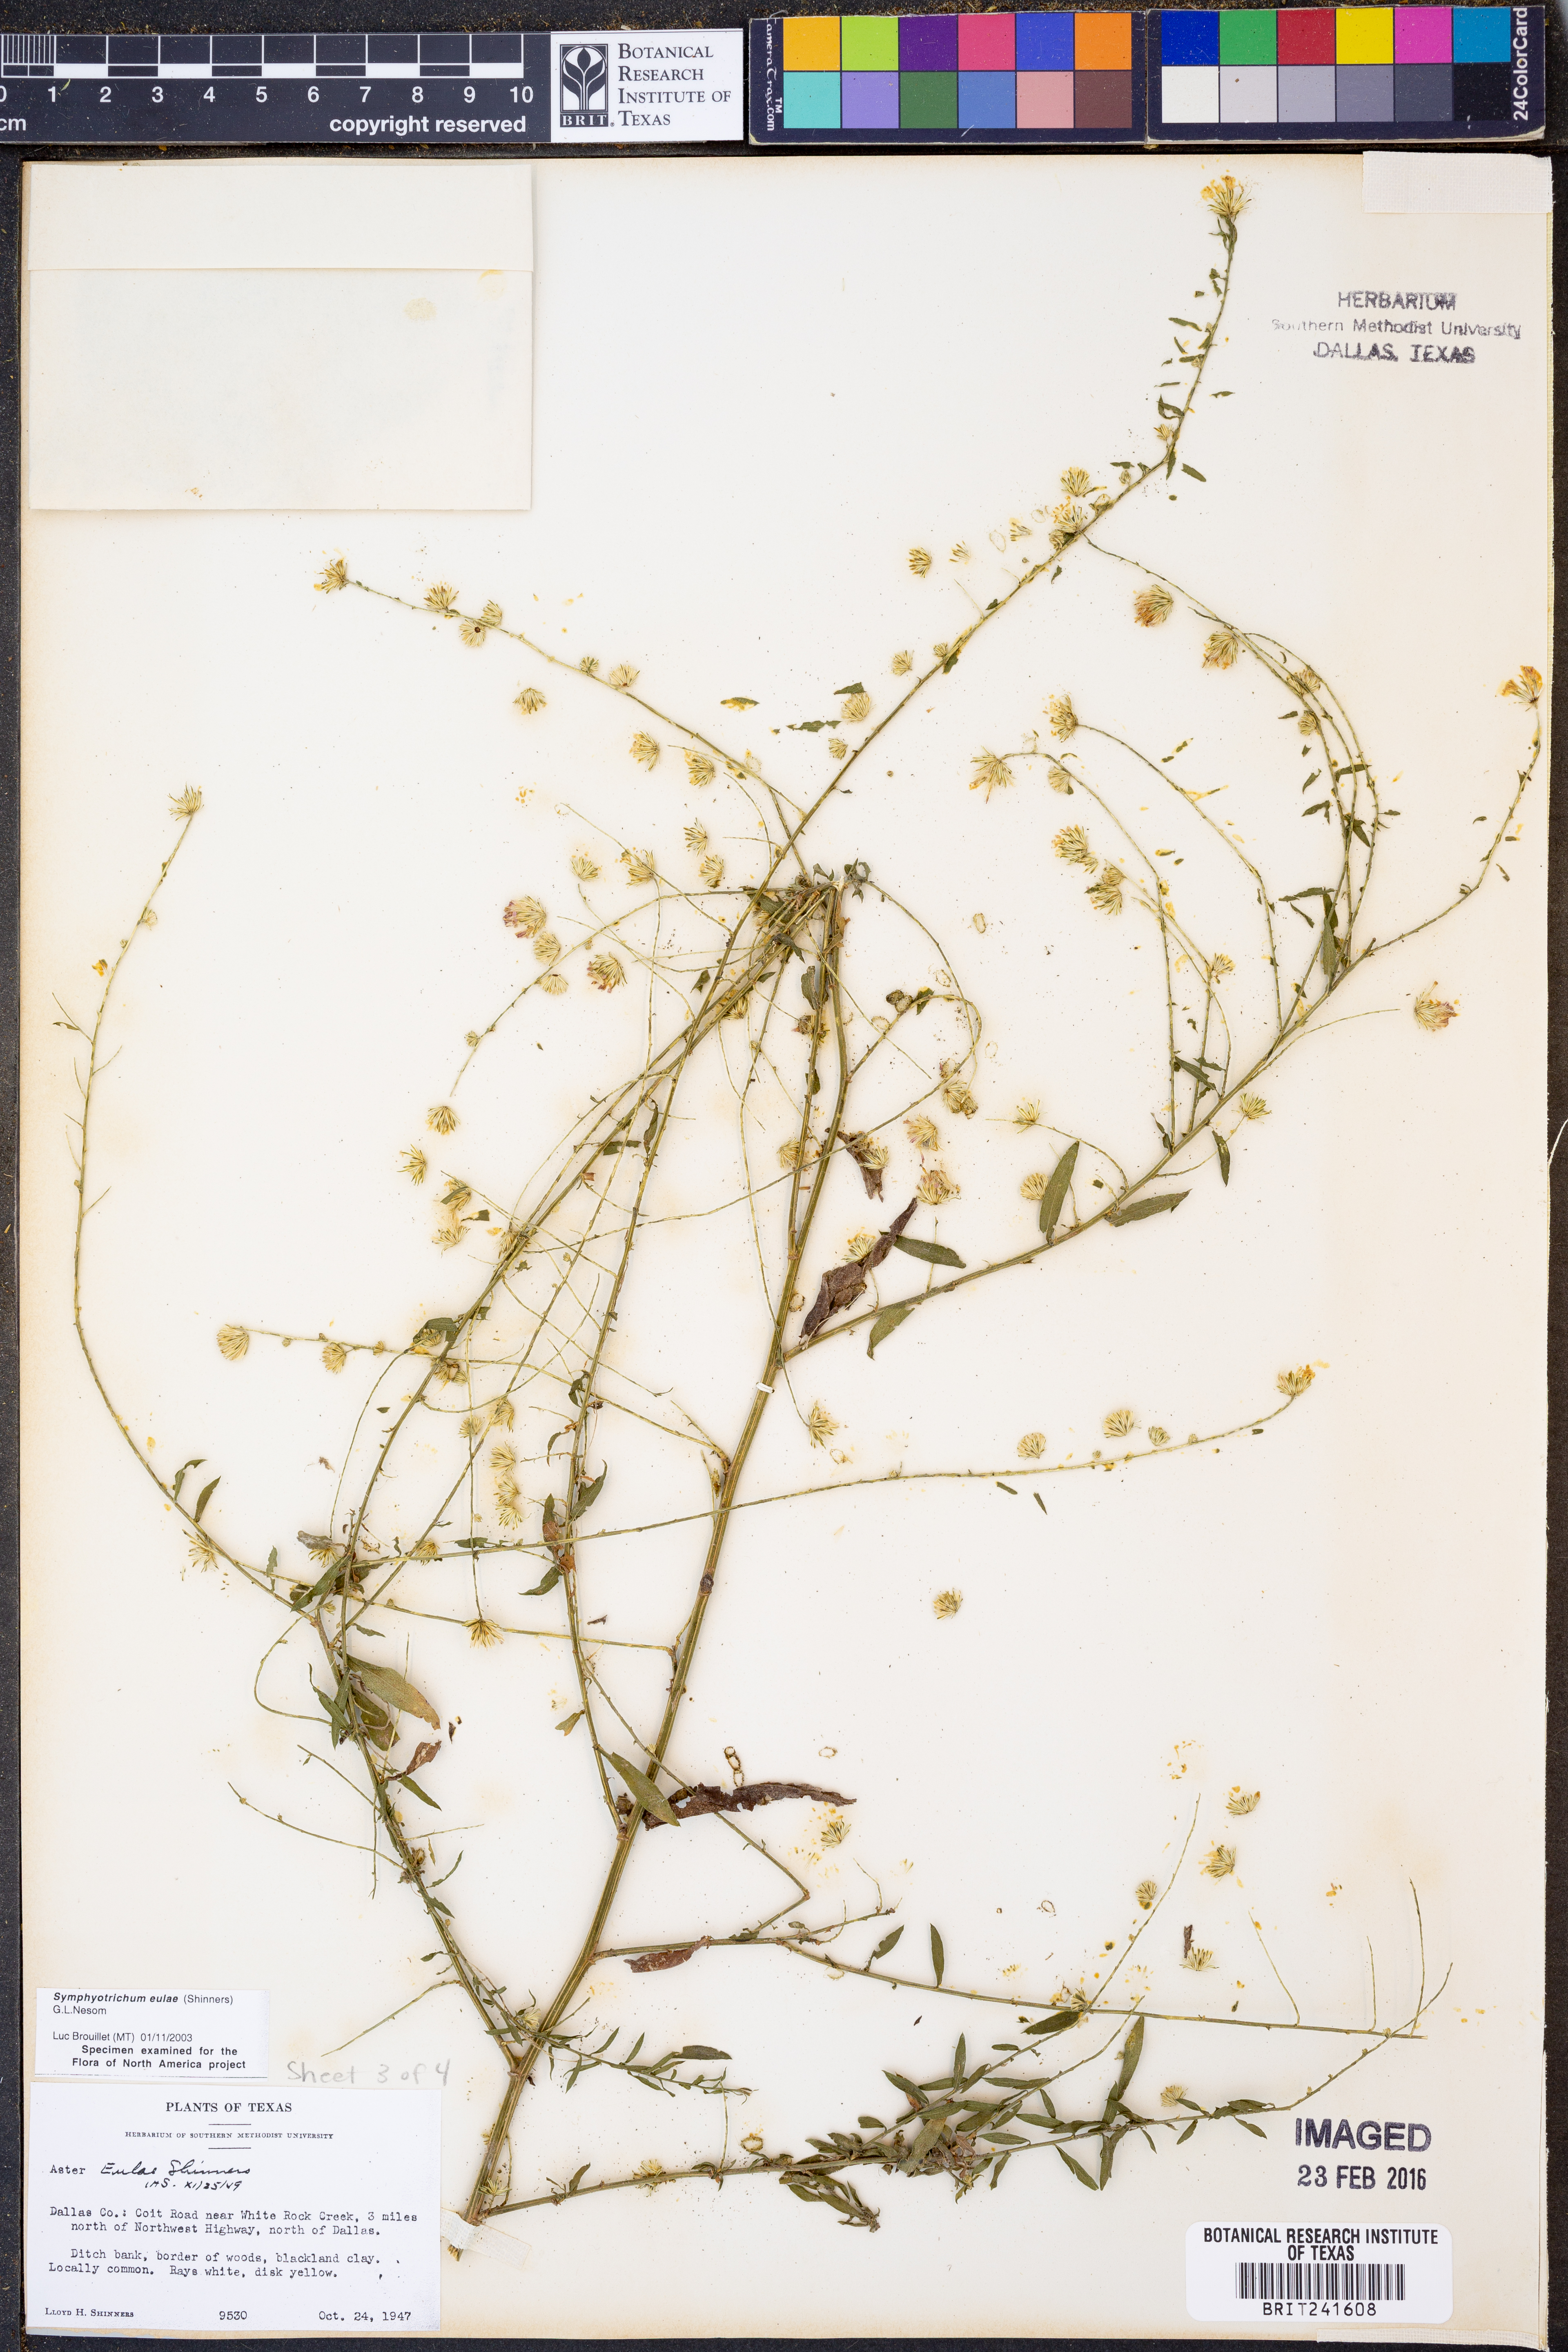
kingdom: Plantae
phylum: Tracheophyta
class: Magnoliopsida
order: Asterales
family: Asteraceae
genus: Symphyotrichum
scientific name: Symphyotrichum eulae
